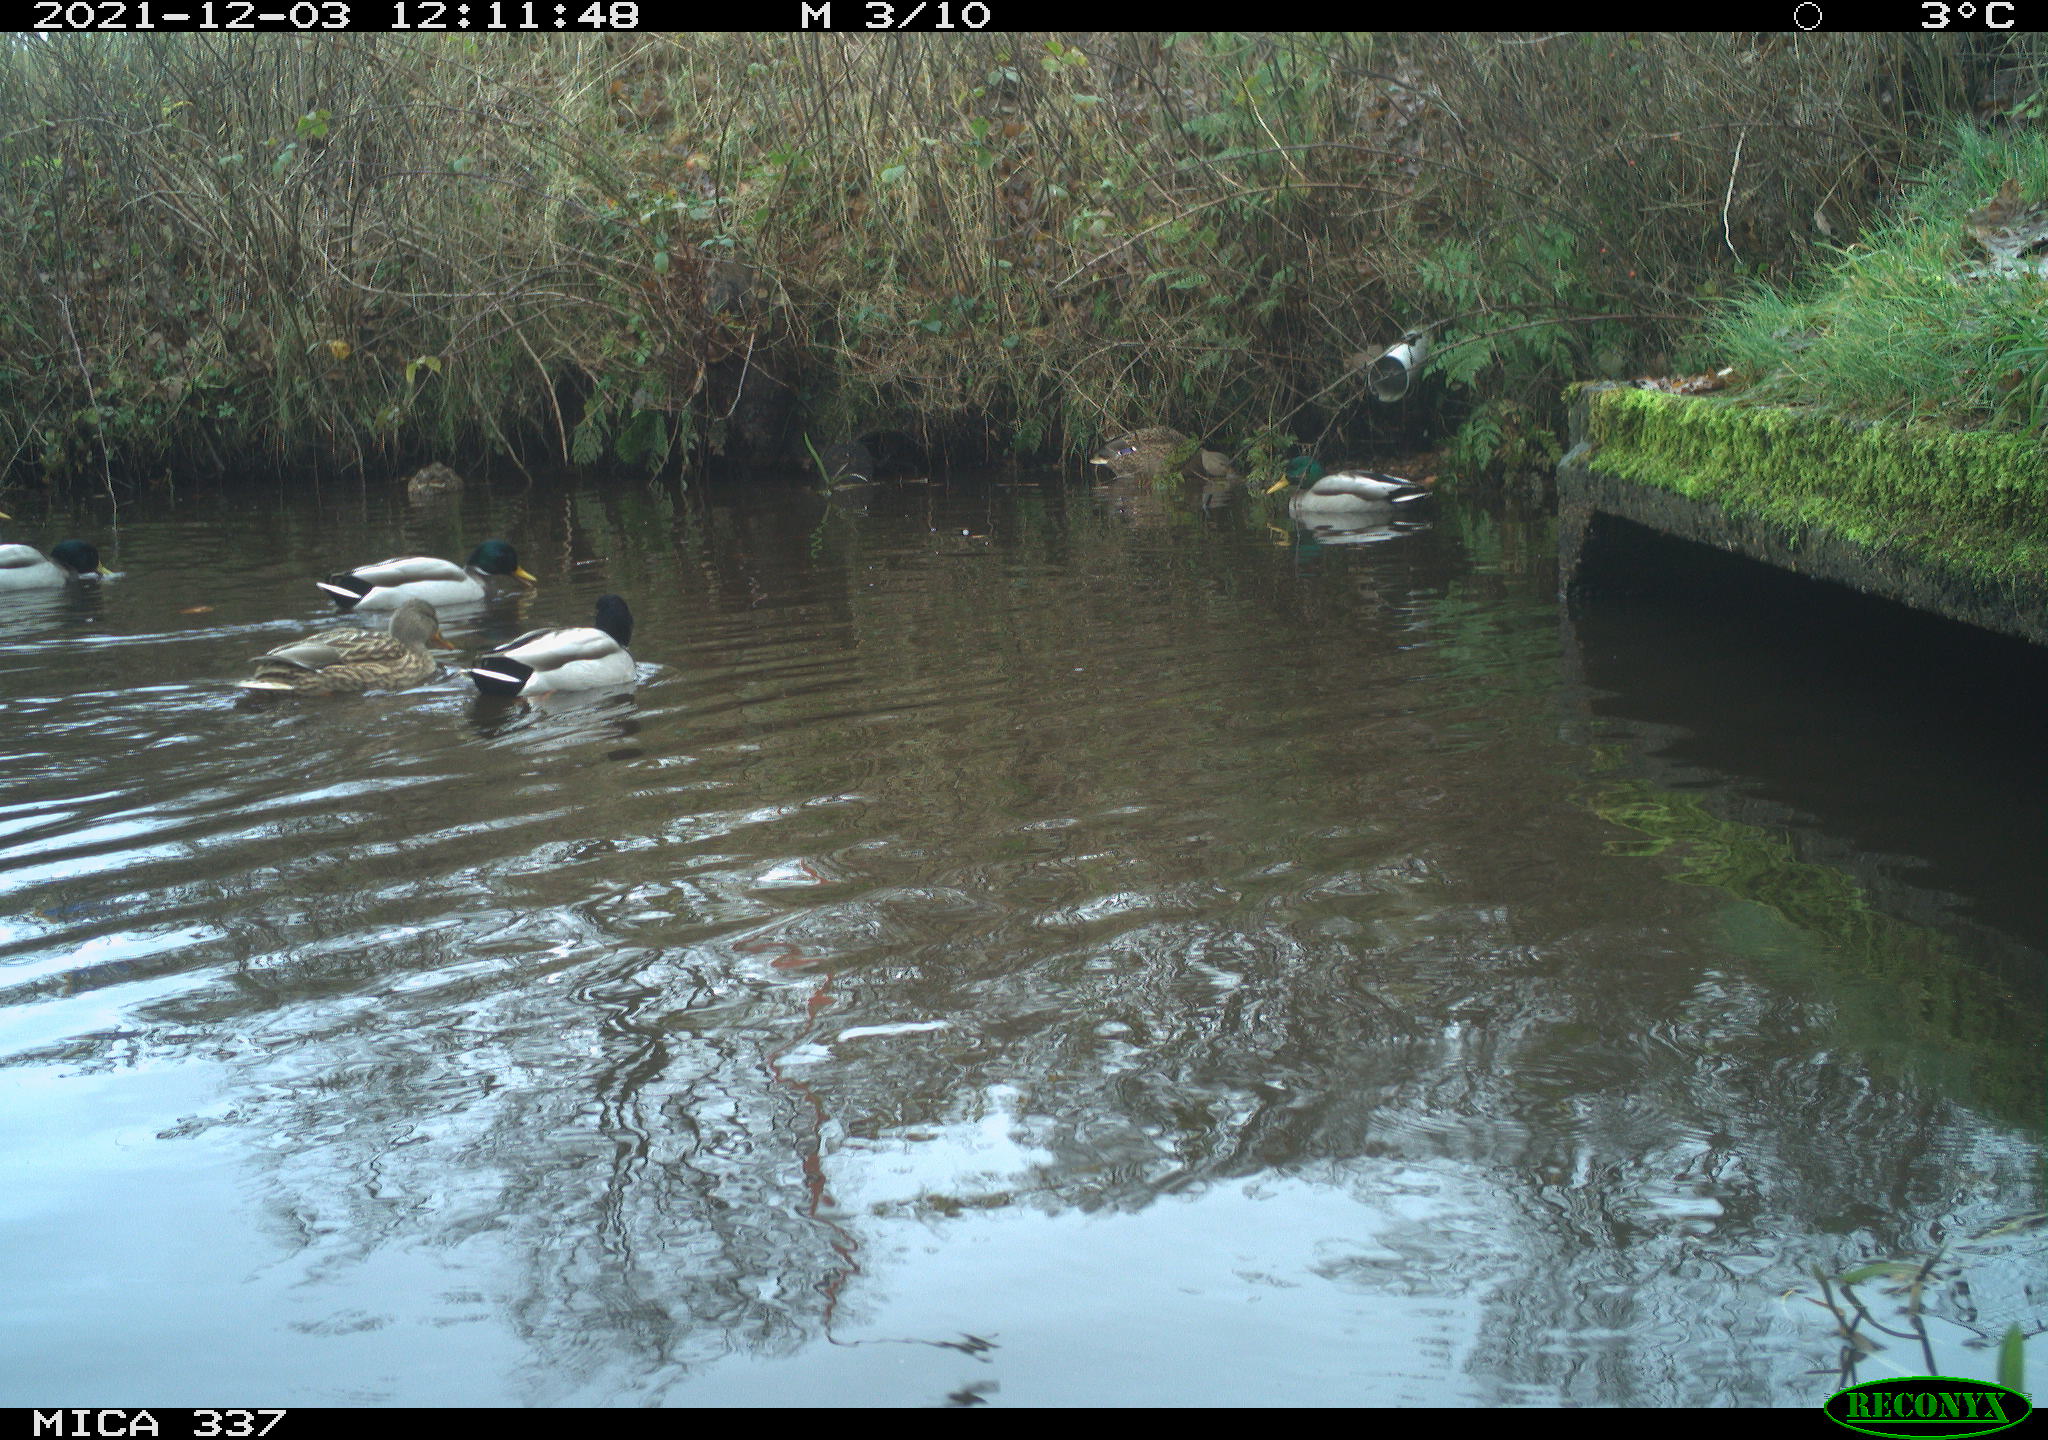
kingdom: Animalia
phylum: Chordata
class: Aves
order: Anseriformes
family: Anatidae
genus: Anas
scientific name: Anas platyrhynchos
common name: Mallard
